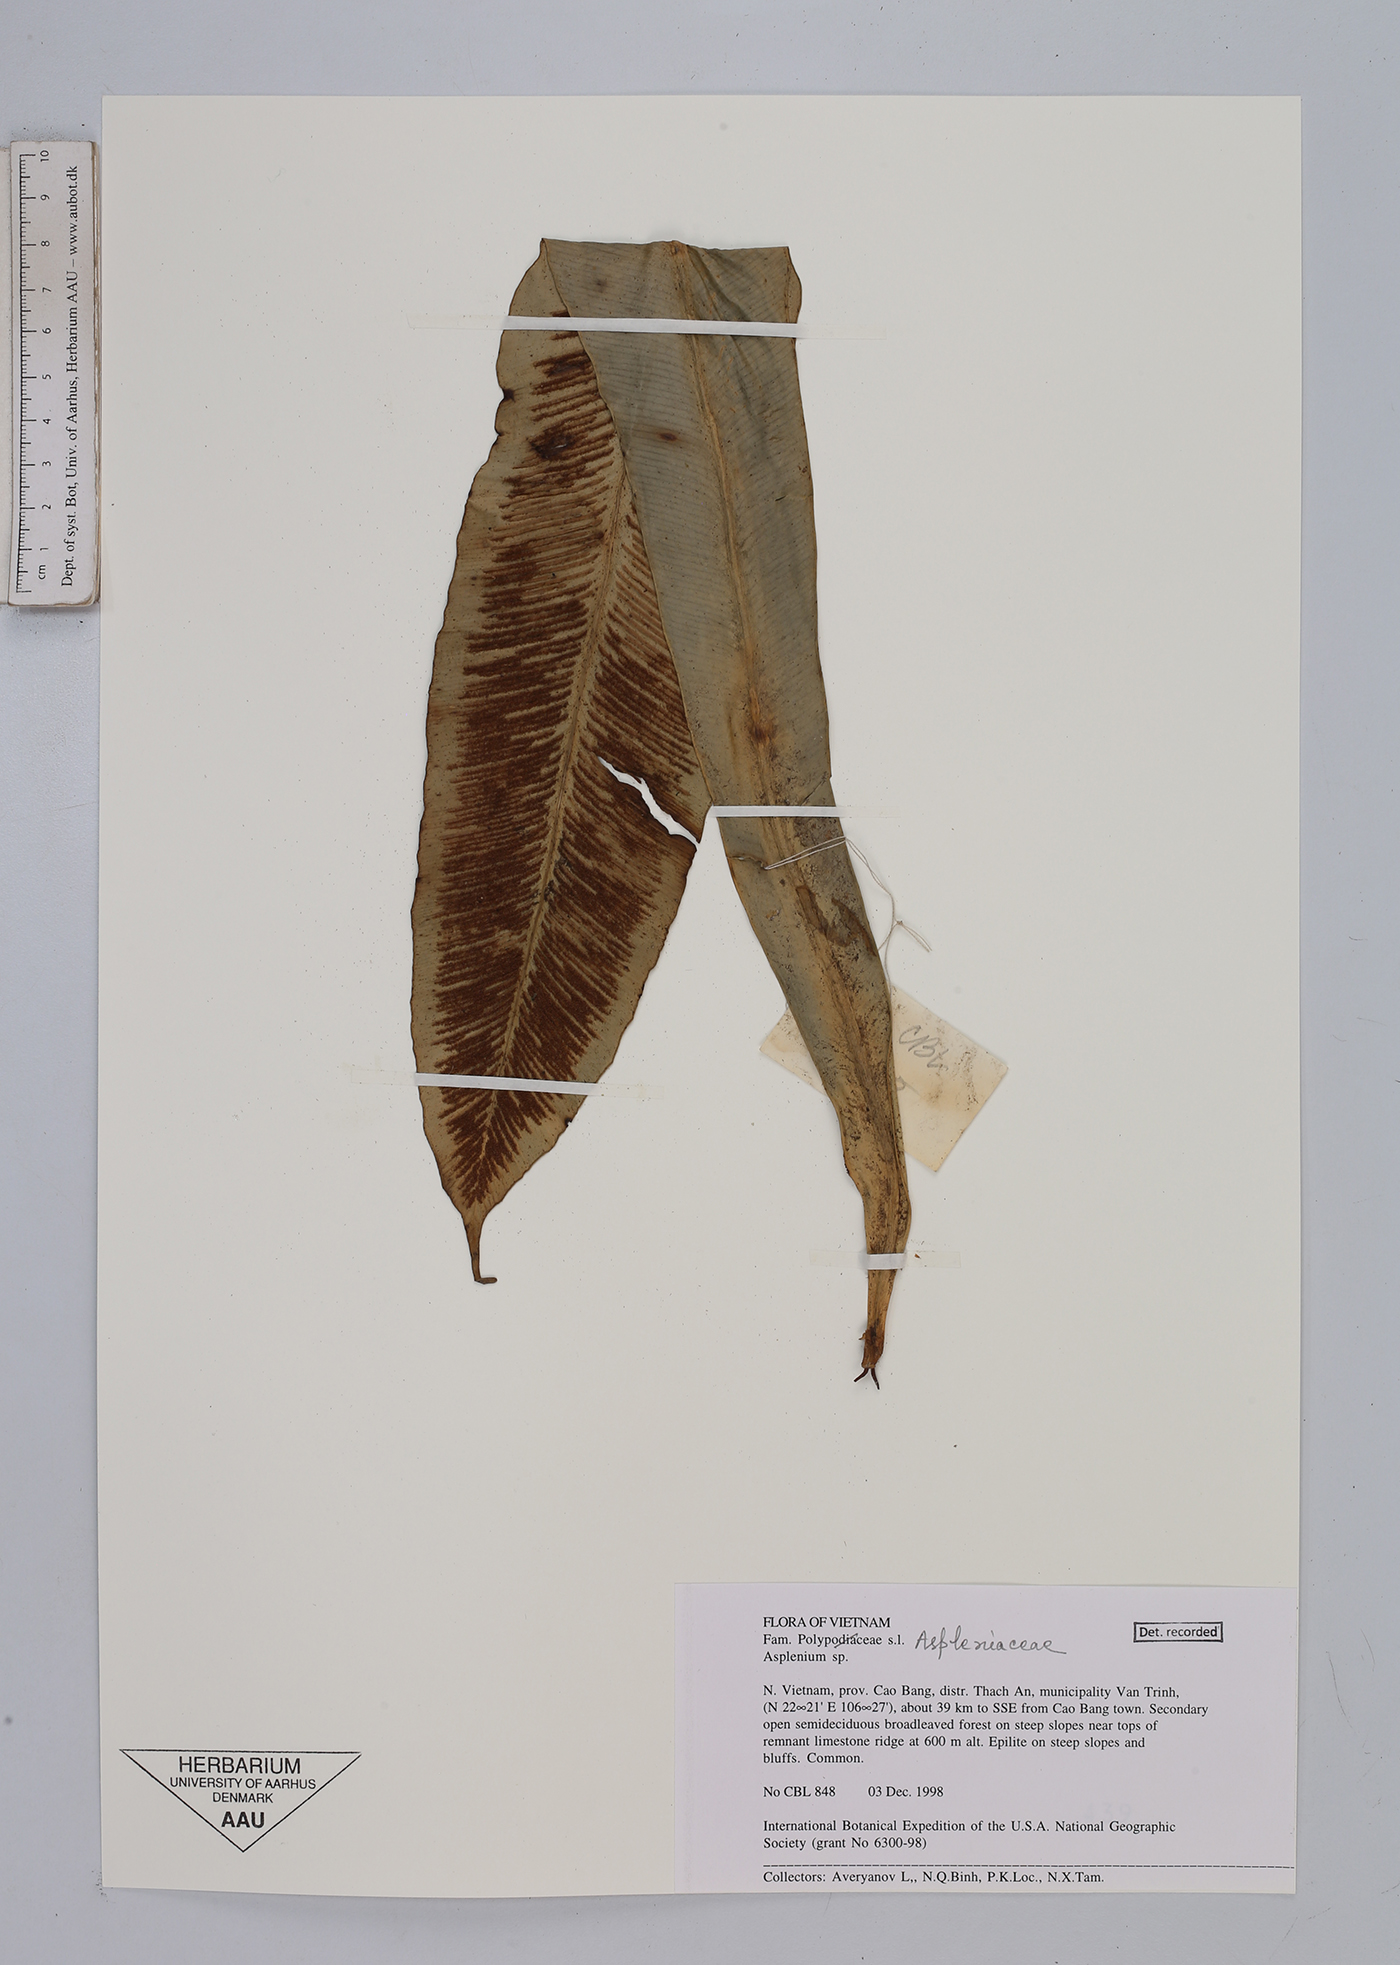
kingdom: Plantae
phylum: Tracheophyta
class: Polypodiopsida
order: Polypodiales
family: Aspleniaceae
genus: Asplenium
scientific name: Asplenium
